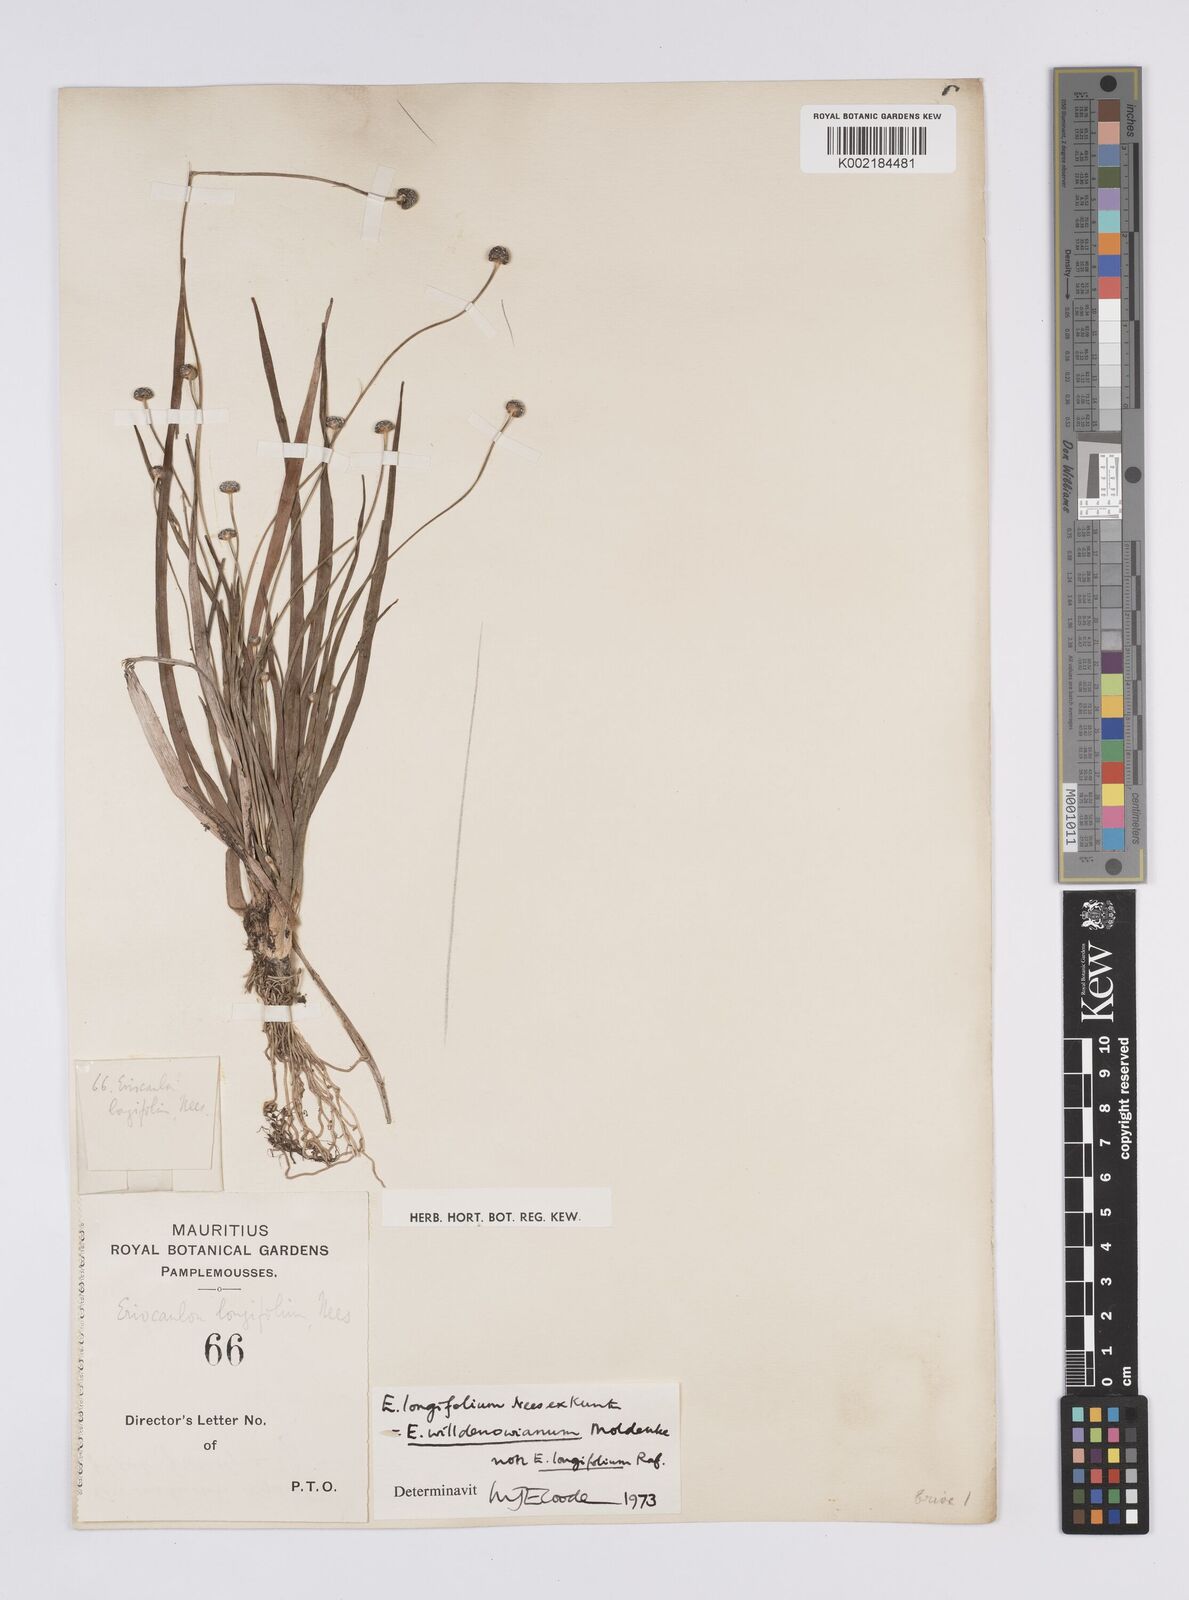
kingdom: Plantae
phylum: Tracheophyta
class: Liliopsida
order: Poales
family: Eriocaulaceae
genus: Eriocaulon
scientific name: Eriocaulon willdenovianum
